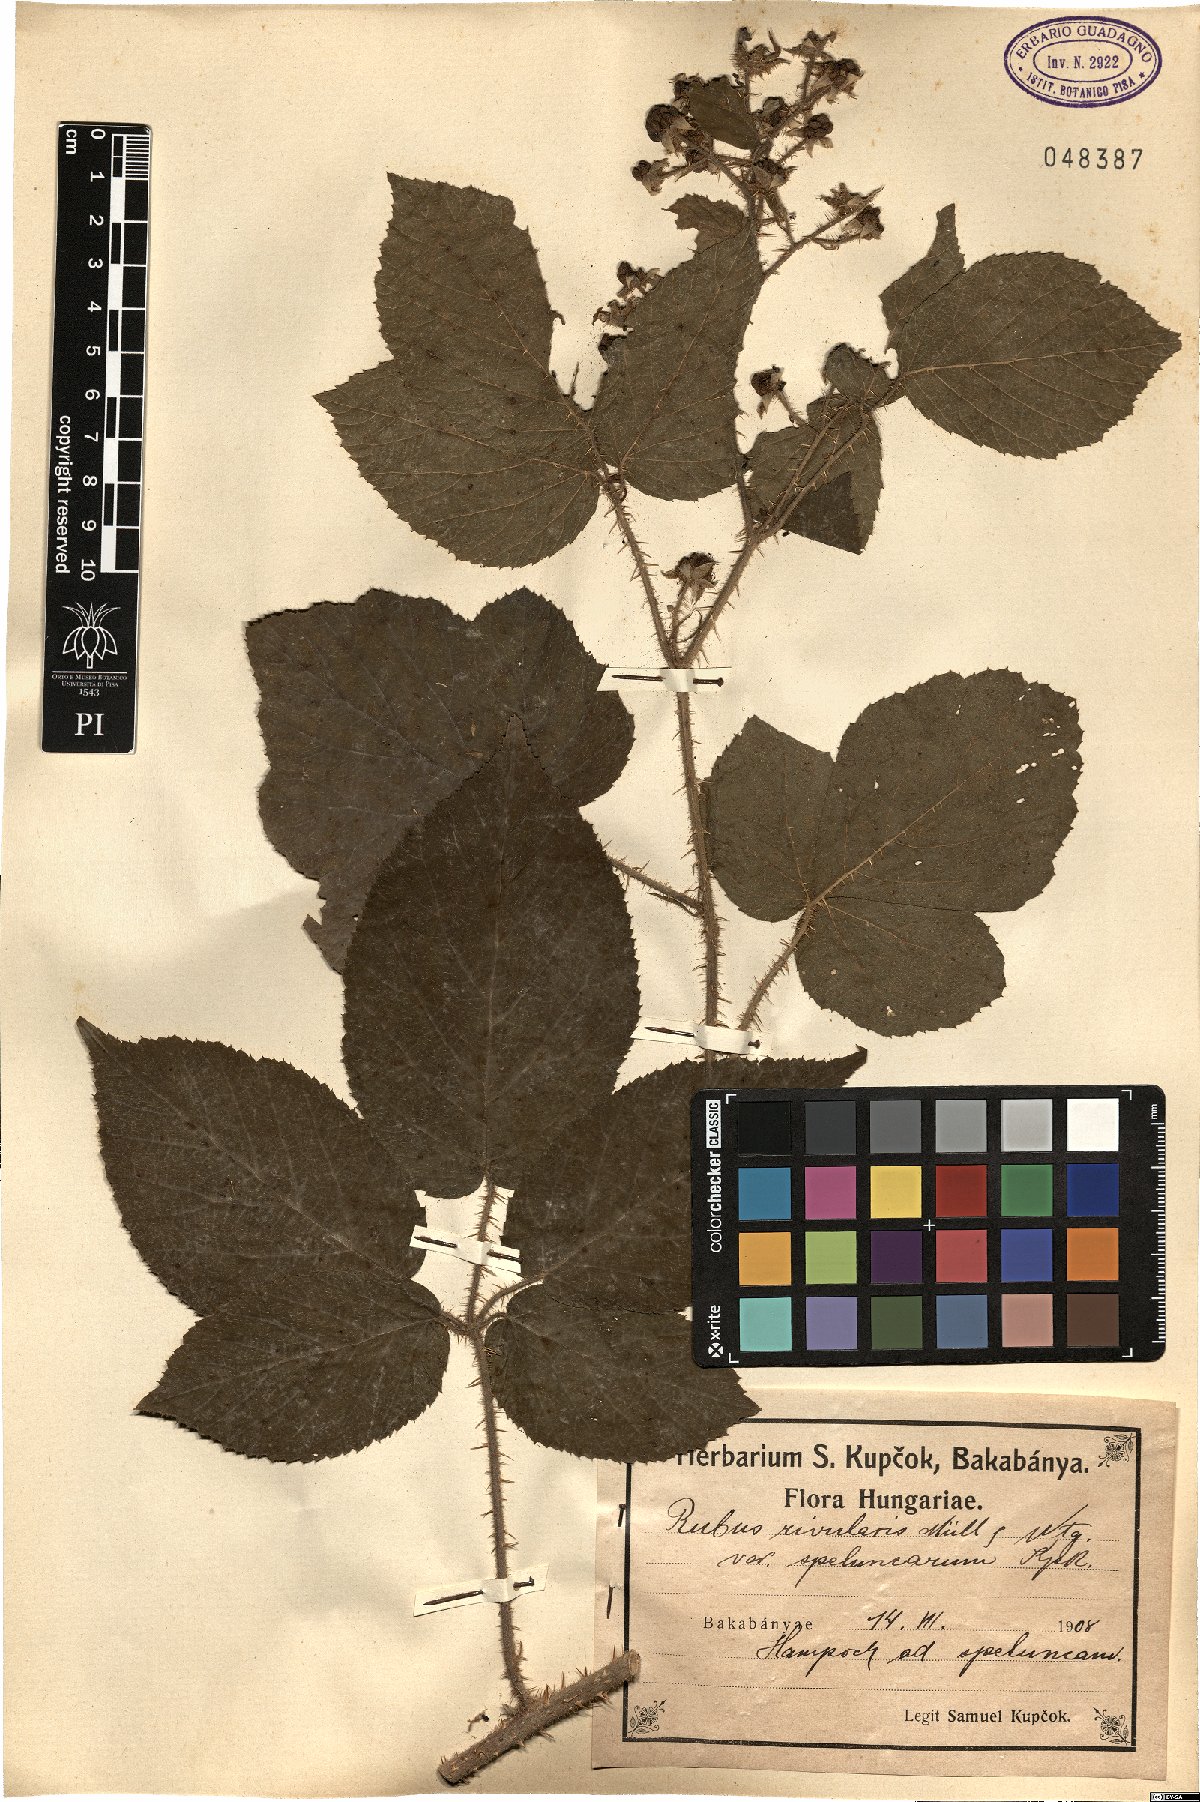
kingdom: Plantae
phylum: Tracheophyta
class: Magnoliopsida
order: Rosales
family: Rosaceae
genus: Rubus
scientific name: Rubus rivularis
